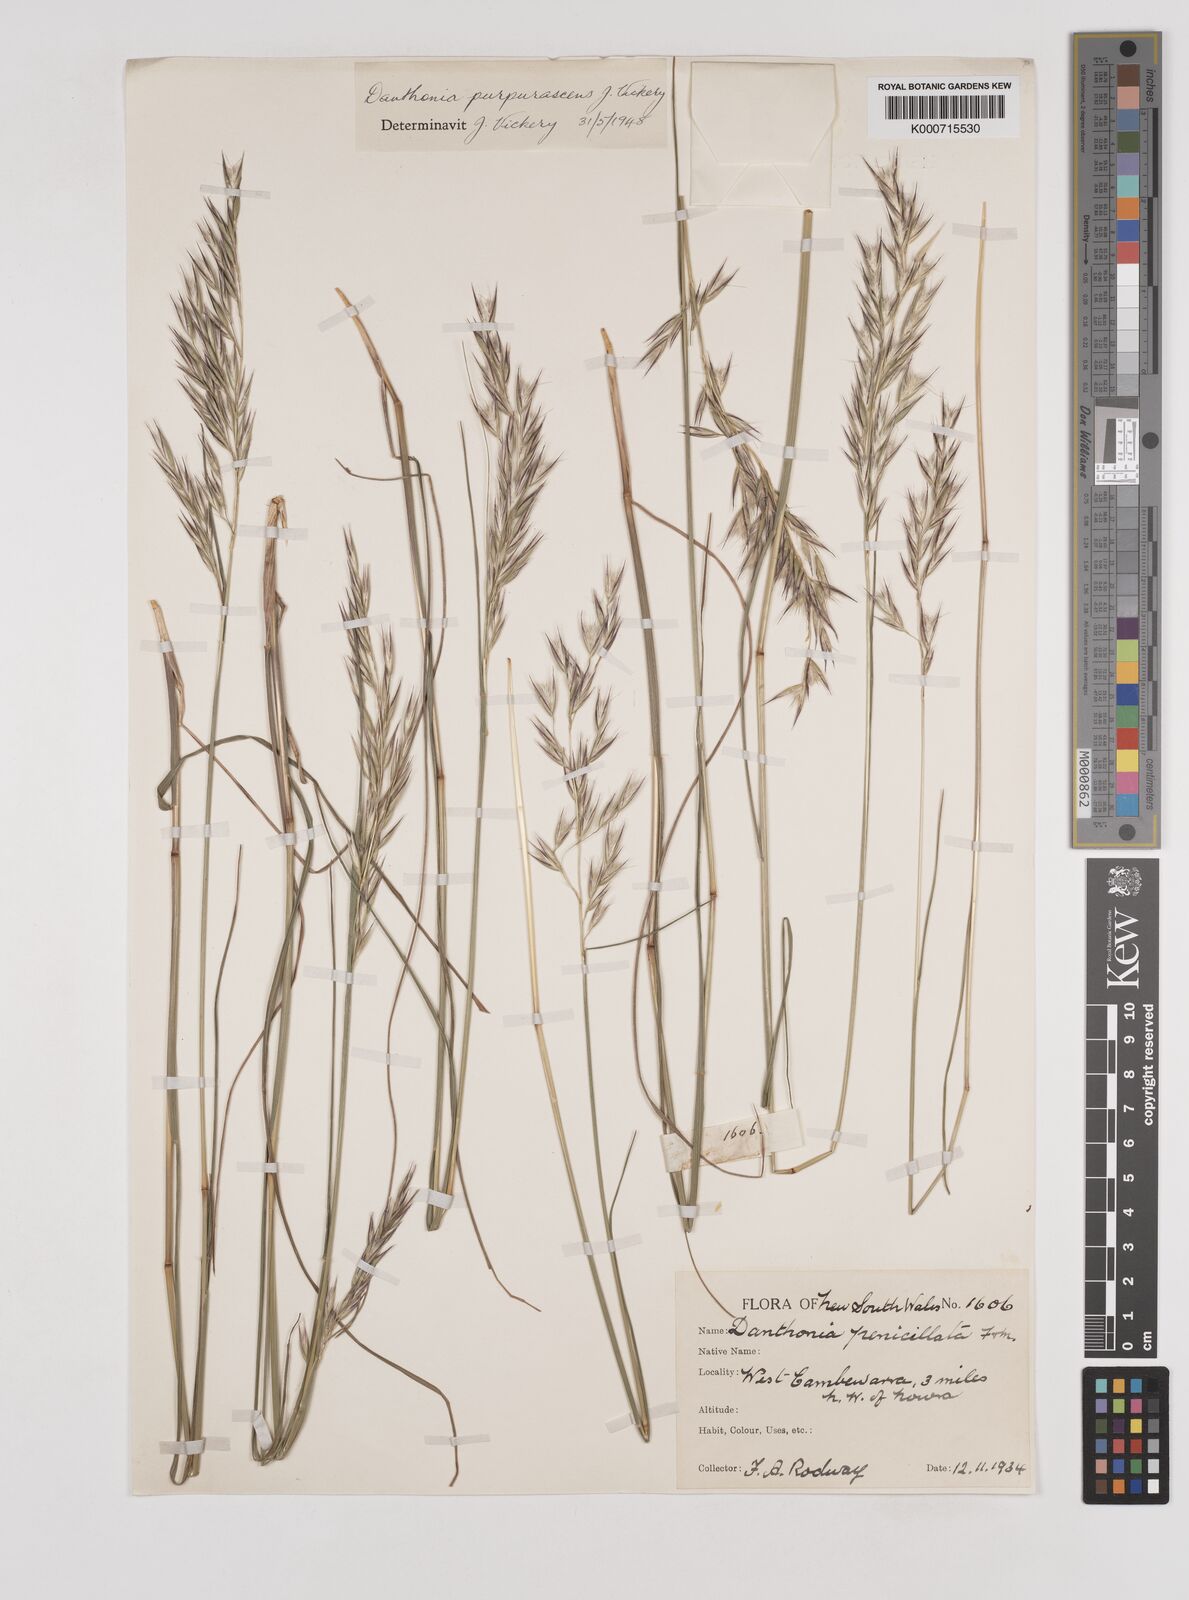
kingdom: Plantae
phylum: Tracheophyta
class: Liliopsida
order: Poales
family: Poaceae
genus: Rytidosperma
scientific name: Rytidosperma tenuius
